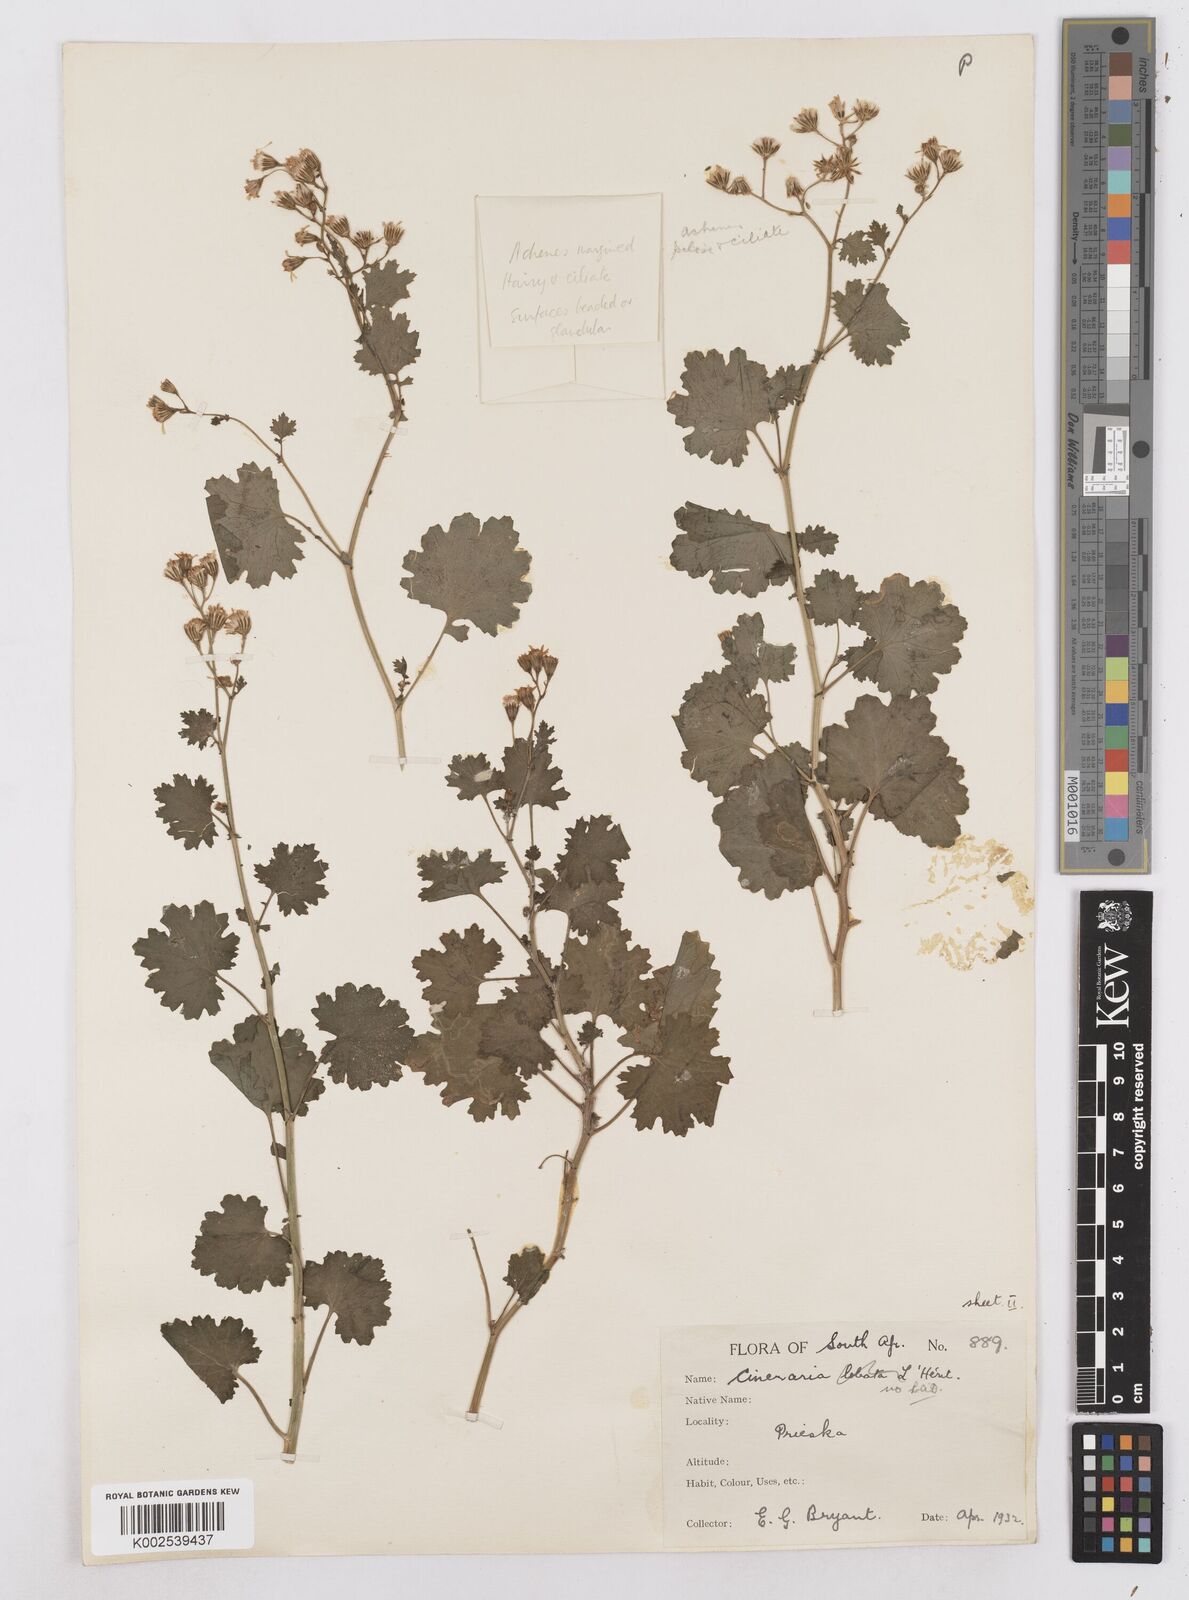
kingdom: Plantae
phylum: Tracheophyta
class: Magnoliopsida
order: Asterales
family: Asteraceae
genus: Cineraria
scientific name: Cineraria
